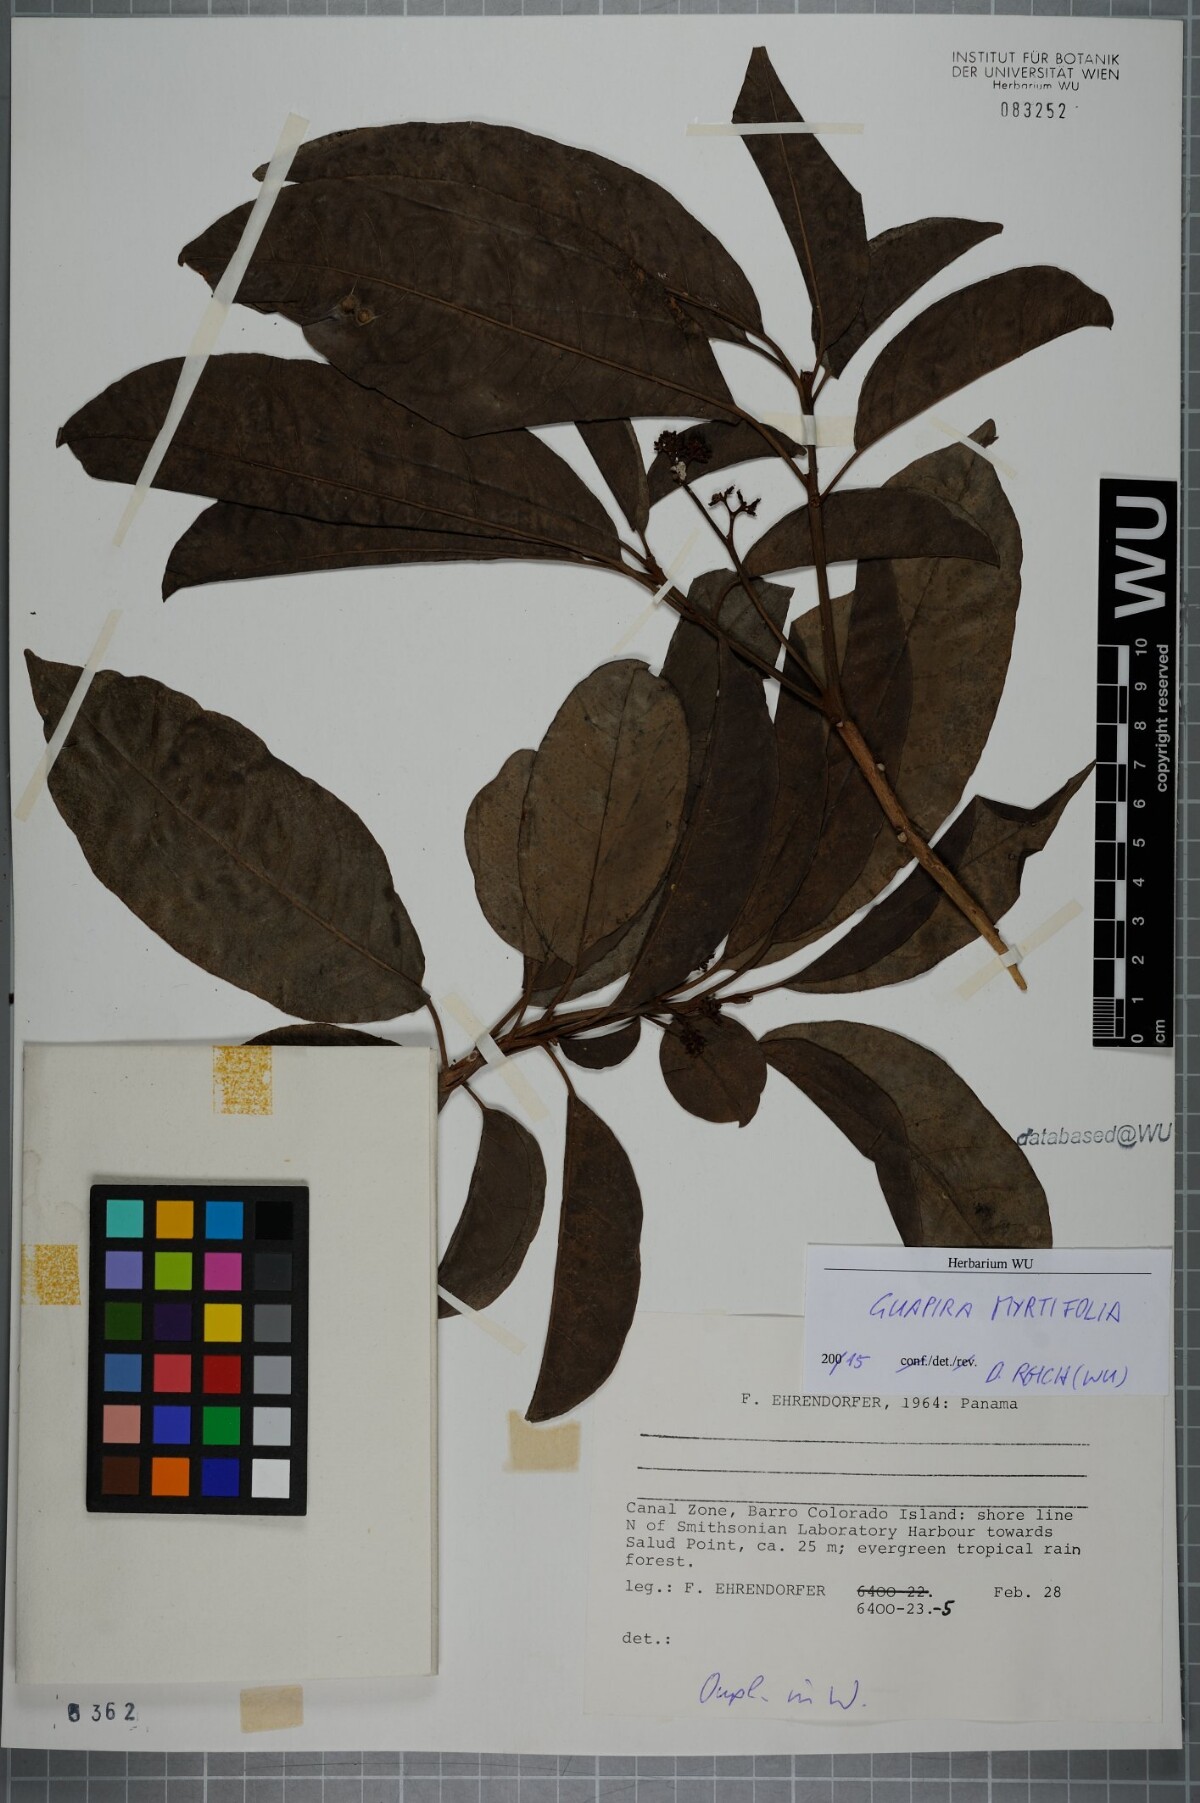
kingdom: Plantae
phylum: Tracheophyta
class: Magnoliopsida
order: Caryophyllales
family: Nyctaginaceae
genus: Guapira
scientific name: Guapira myrtiflora
